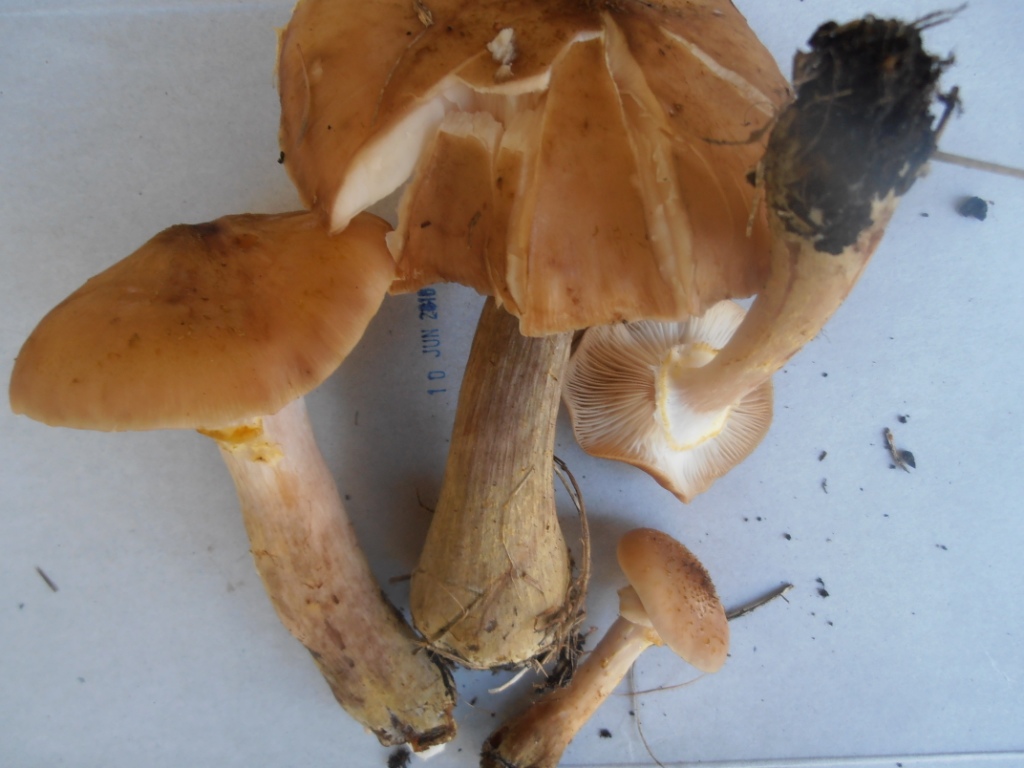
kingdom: Fungi
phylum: Basidiomycota
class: Agaricomycetes
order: Agaricales
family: Physalacriaceae
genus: Armillaria
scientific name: Armillaria lutea
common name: køllestokket honningsvamp
